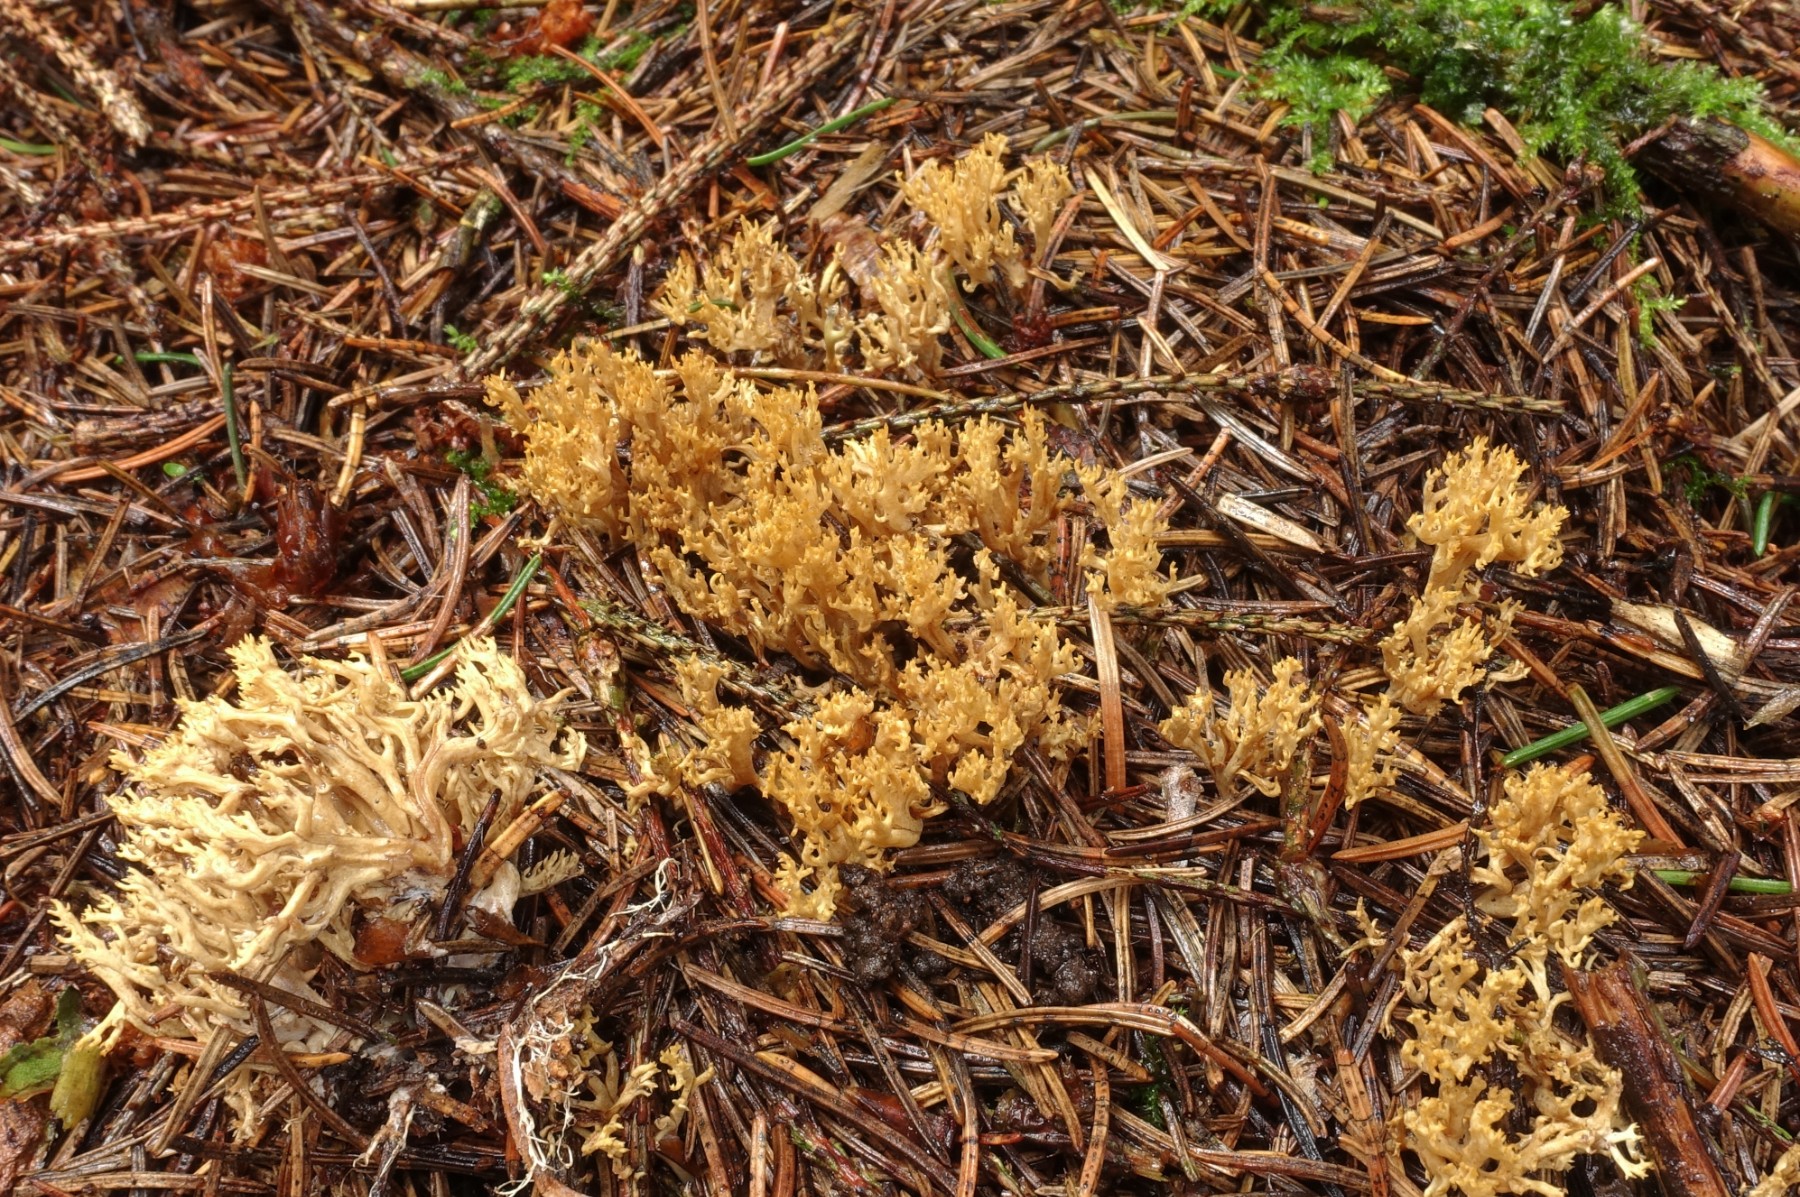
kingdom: Fungi
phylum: Basidiomycota
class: Agaricomycetes
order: Gomphales
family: Gomphaceae
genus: Phaeoclavulina
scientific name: Phaeoclavulina eumorpha
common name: gran-koralsvamp
